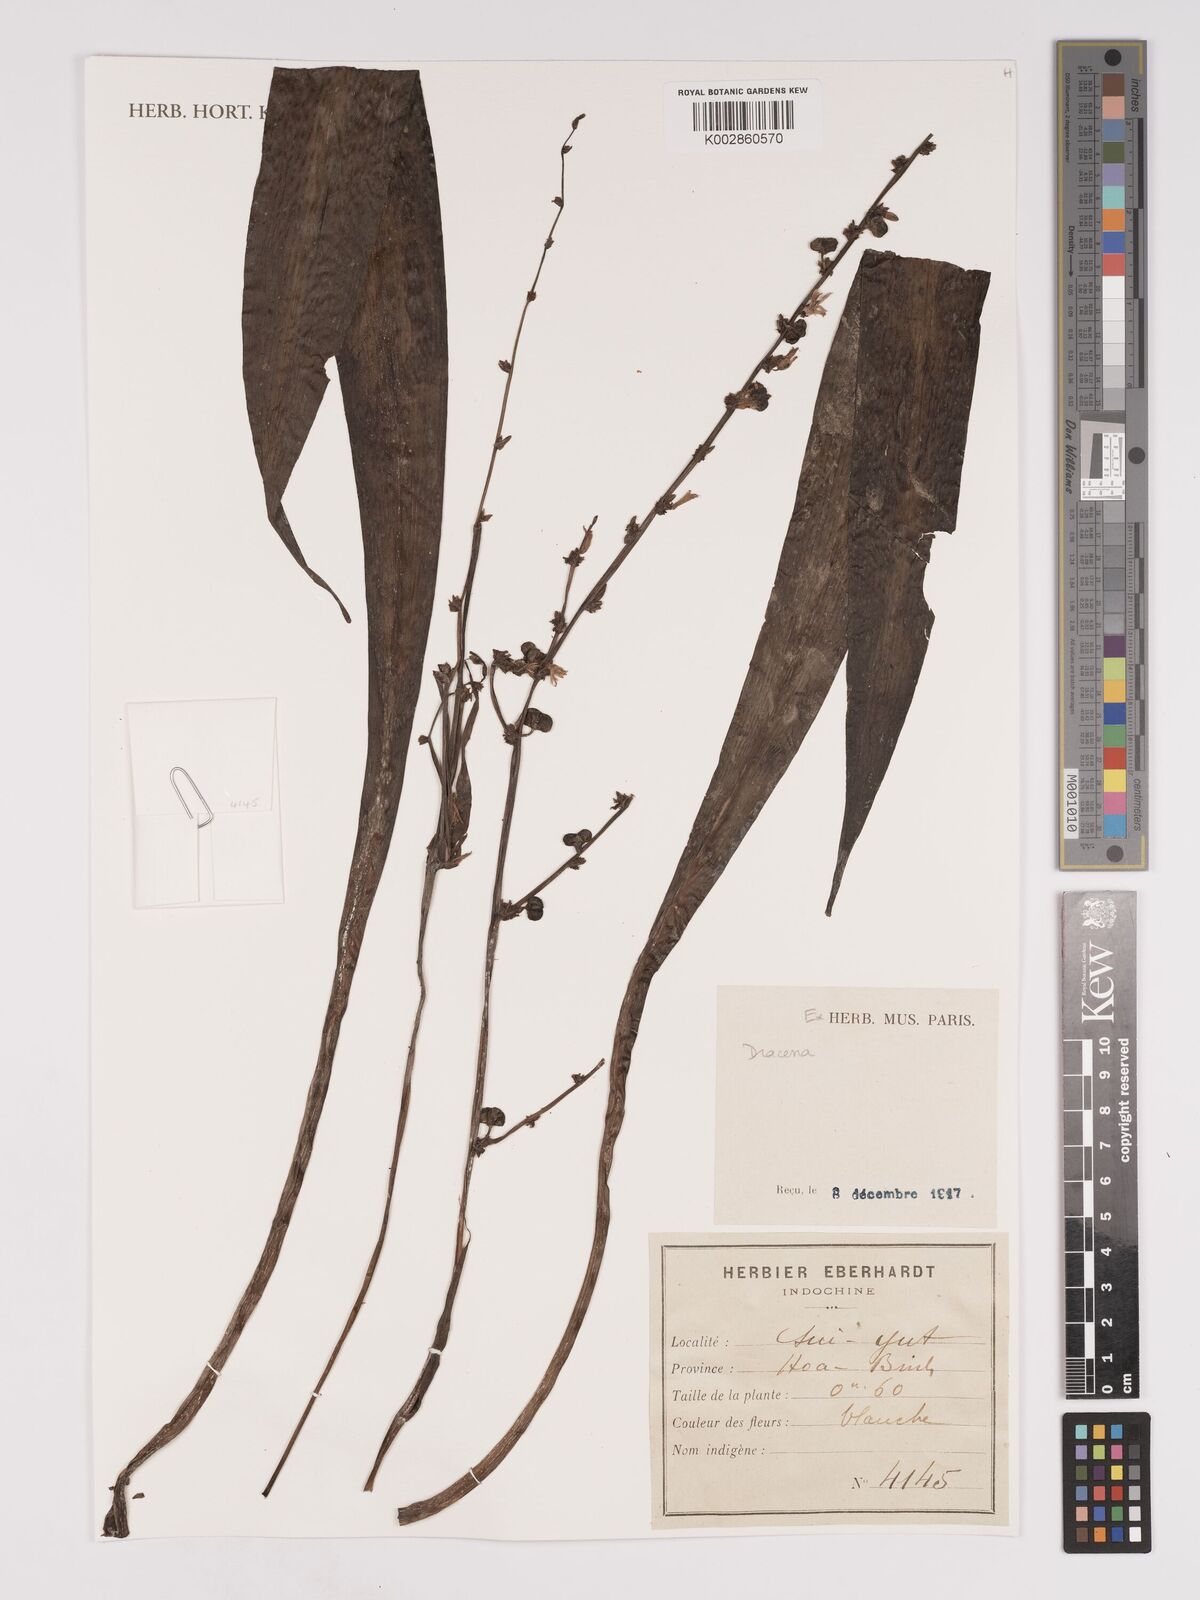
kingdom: Plantae
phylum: Tracheophyta
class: Liliopsida
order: Asparagales
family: Asparagaceae
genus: Dracaena
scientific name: Dracaena
